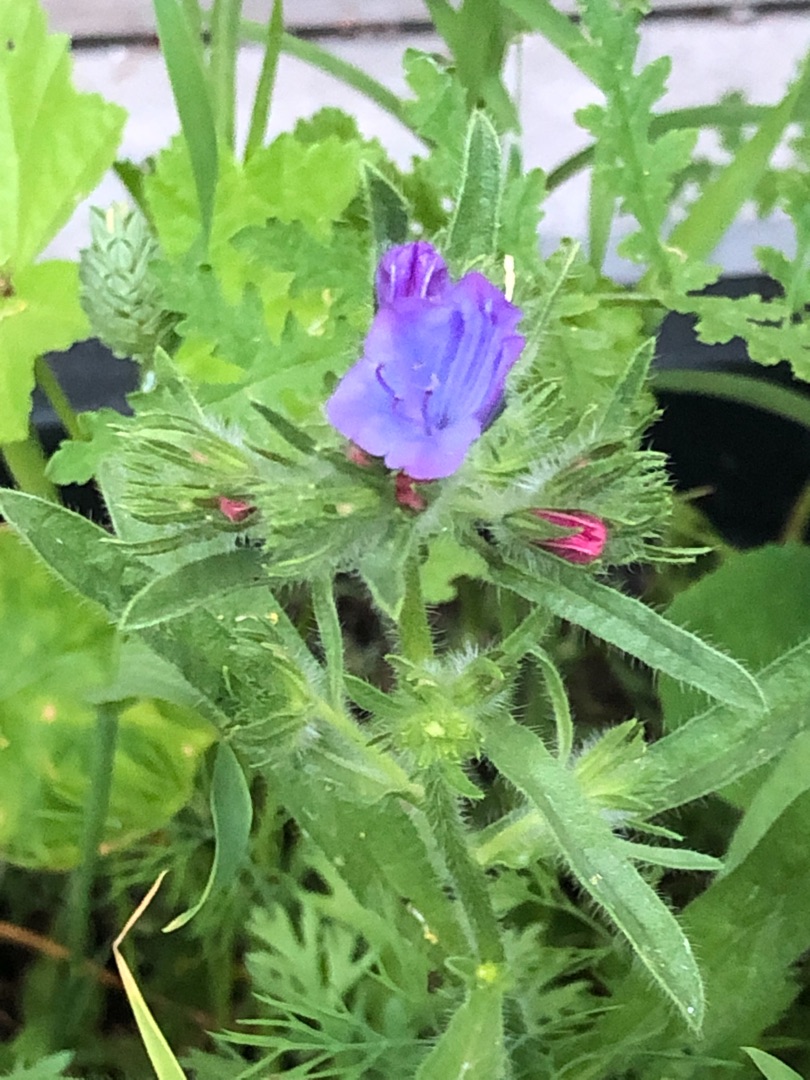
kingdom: Plantae
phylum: Tracheophyta
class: Magnoliopsida
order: Boraginales
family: Boraginaceae
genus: Echium
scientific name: Echium vulgare
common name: Slangehoved
